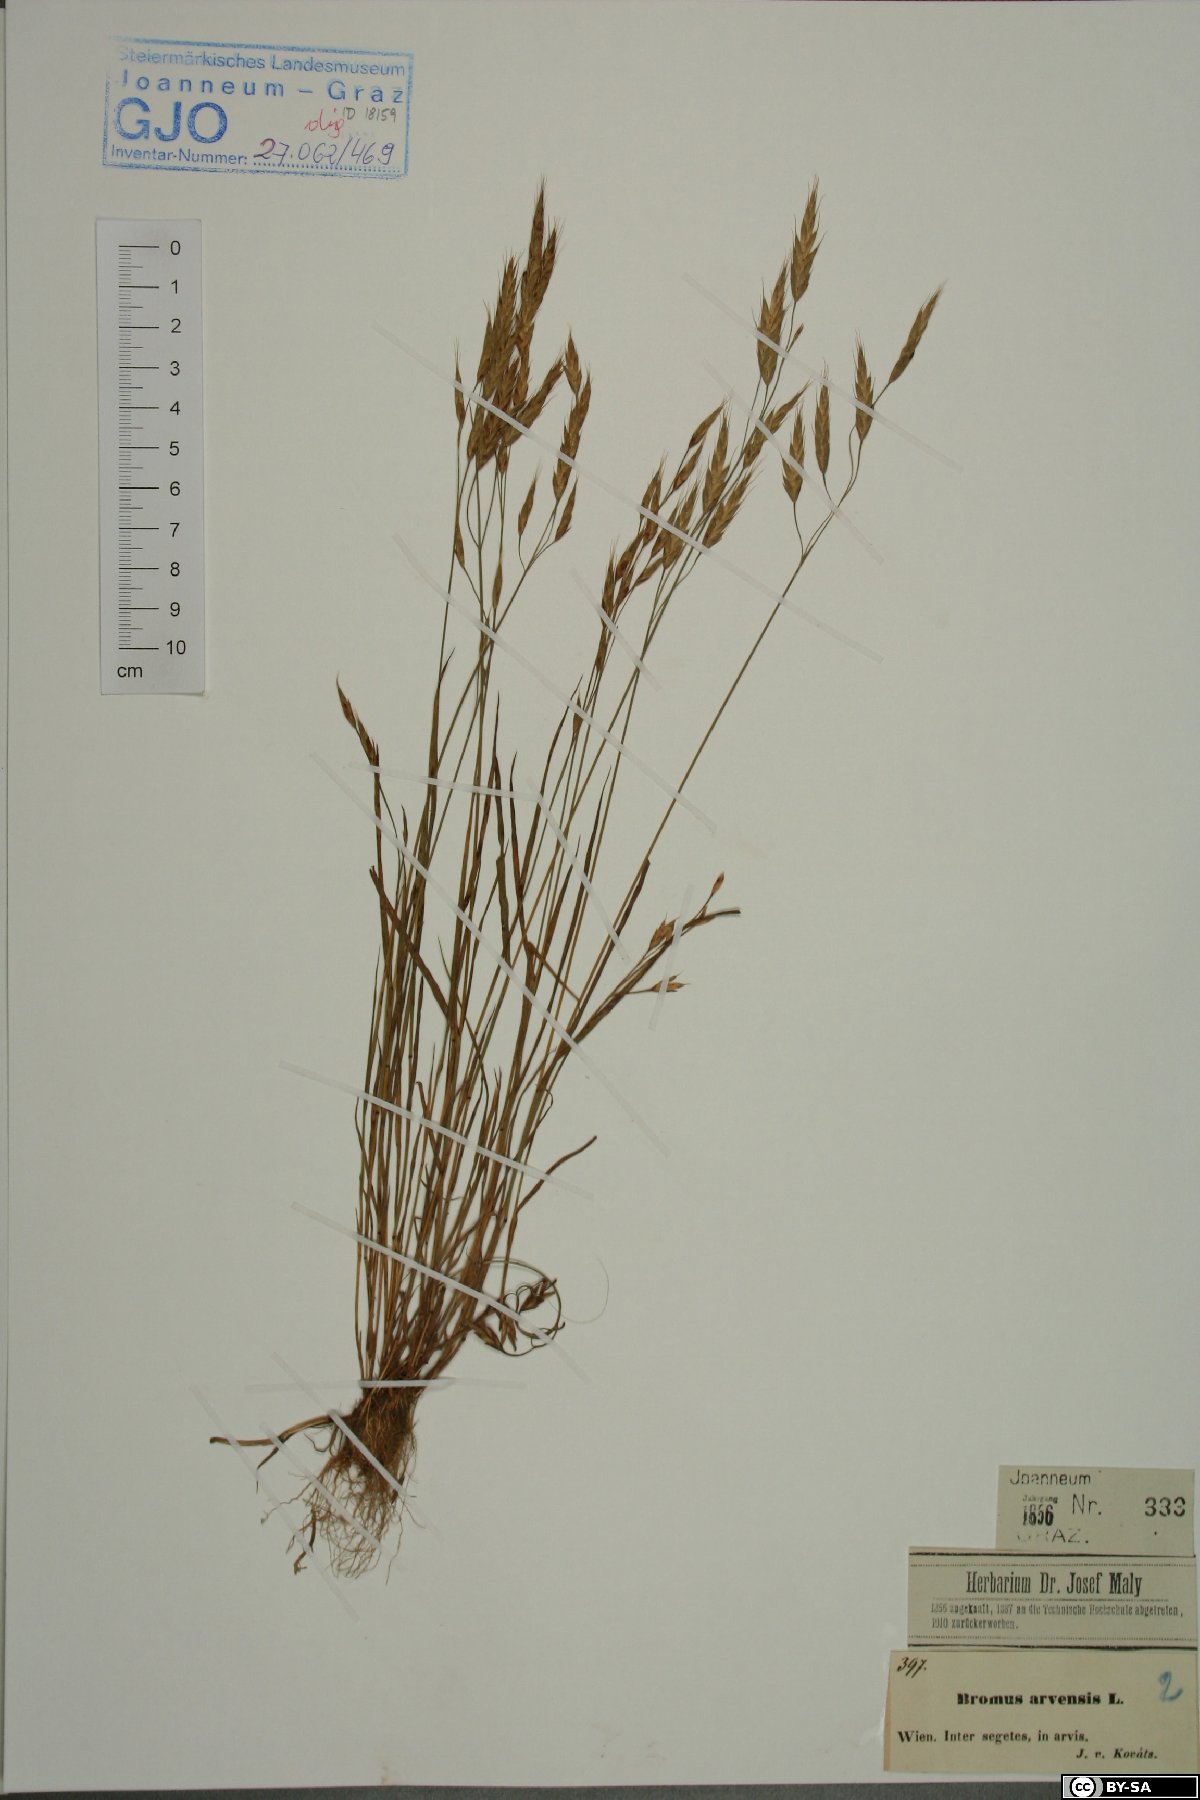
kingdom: Plantae
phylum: Tracheophyta
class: Liliopsida
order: Poales
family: Poaceae
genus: Bromus
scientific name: Bromus arvensis
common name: Field brome
